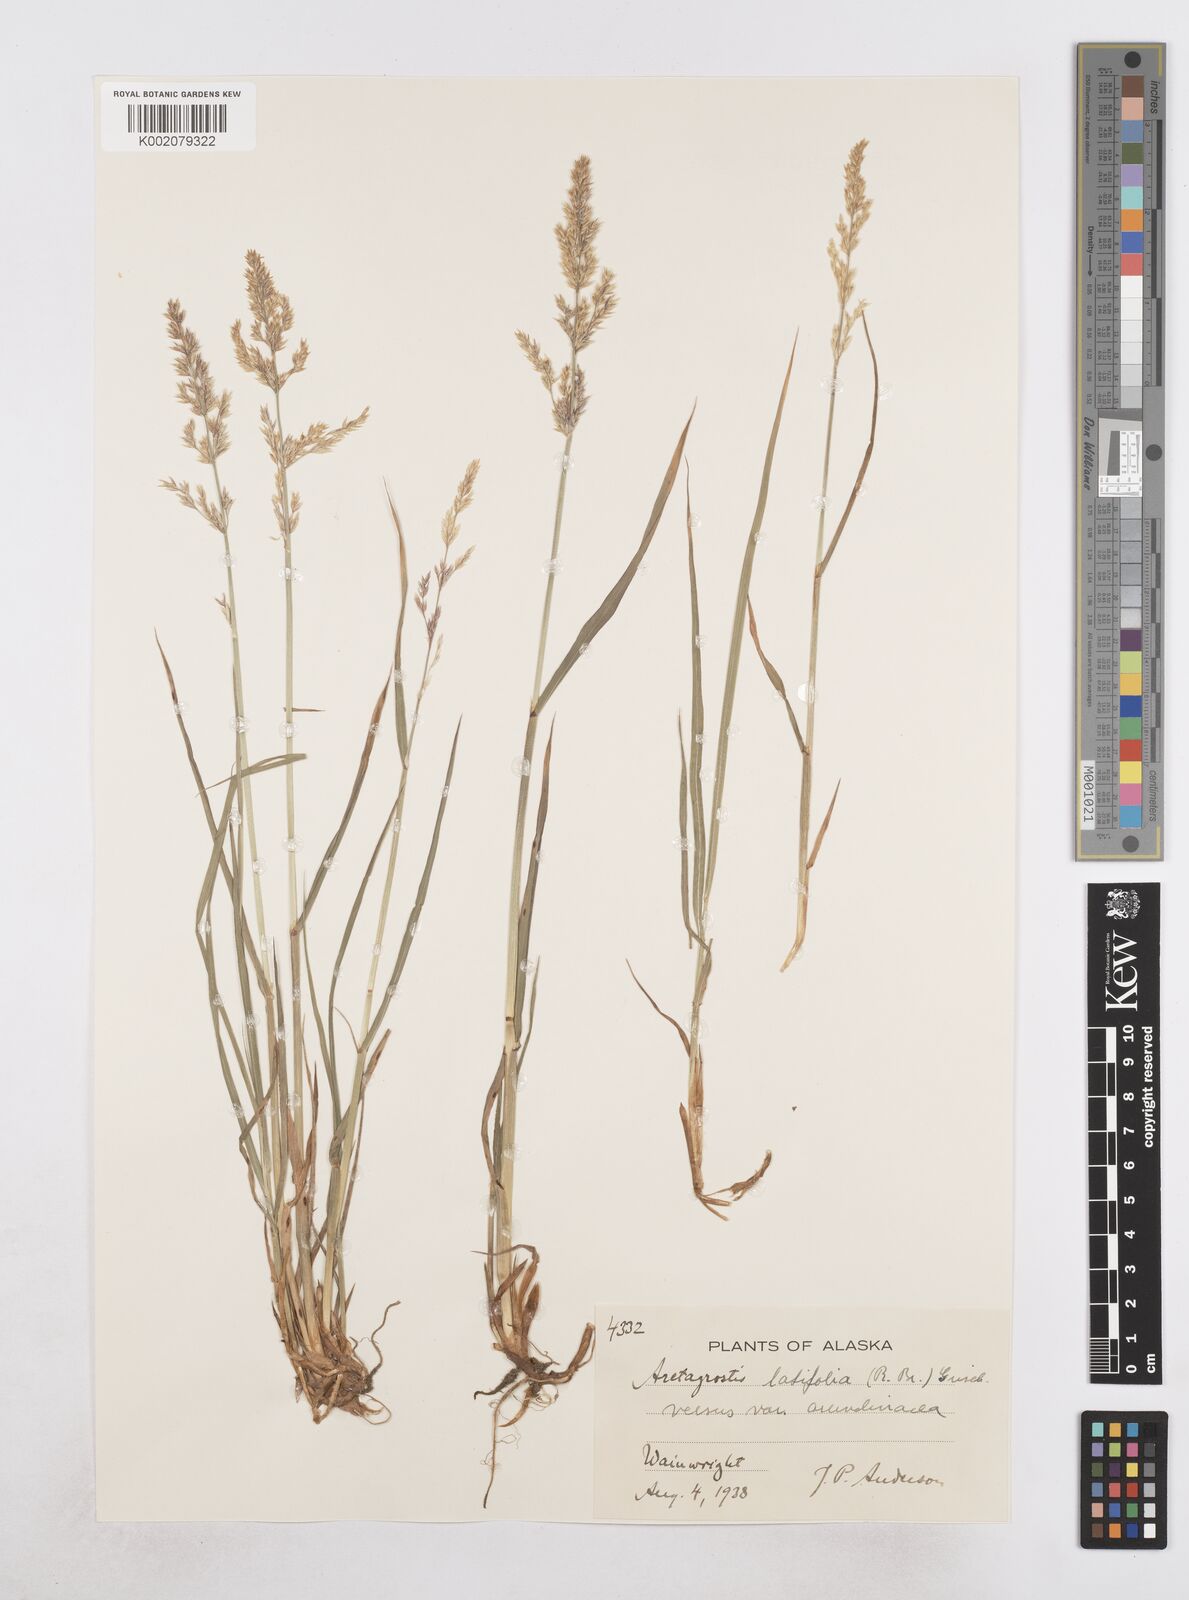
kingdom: Plantae
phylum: Tracheophyta
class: Liliopsida
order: Poales
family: Poaceae
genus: Arctagrostis
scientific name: Arctagrostis arundinacea
